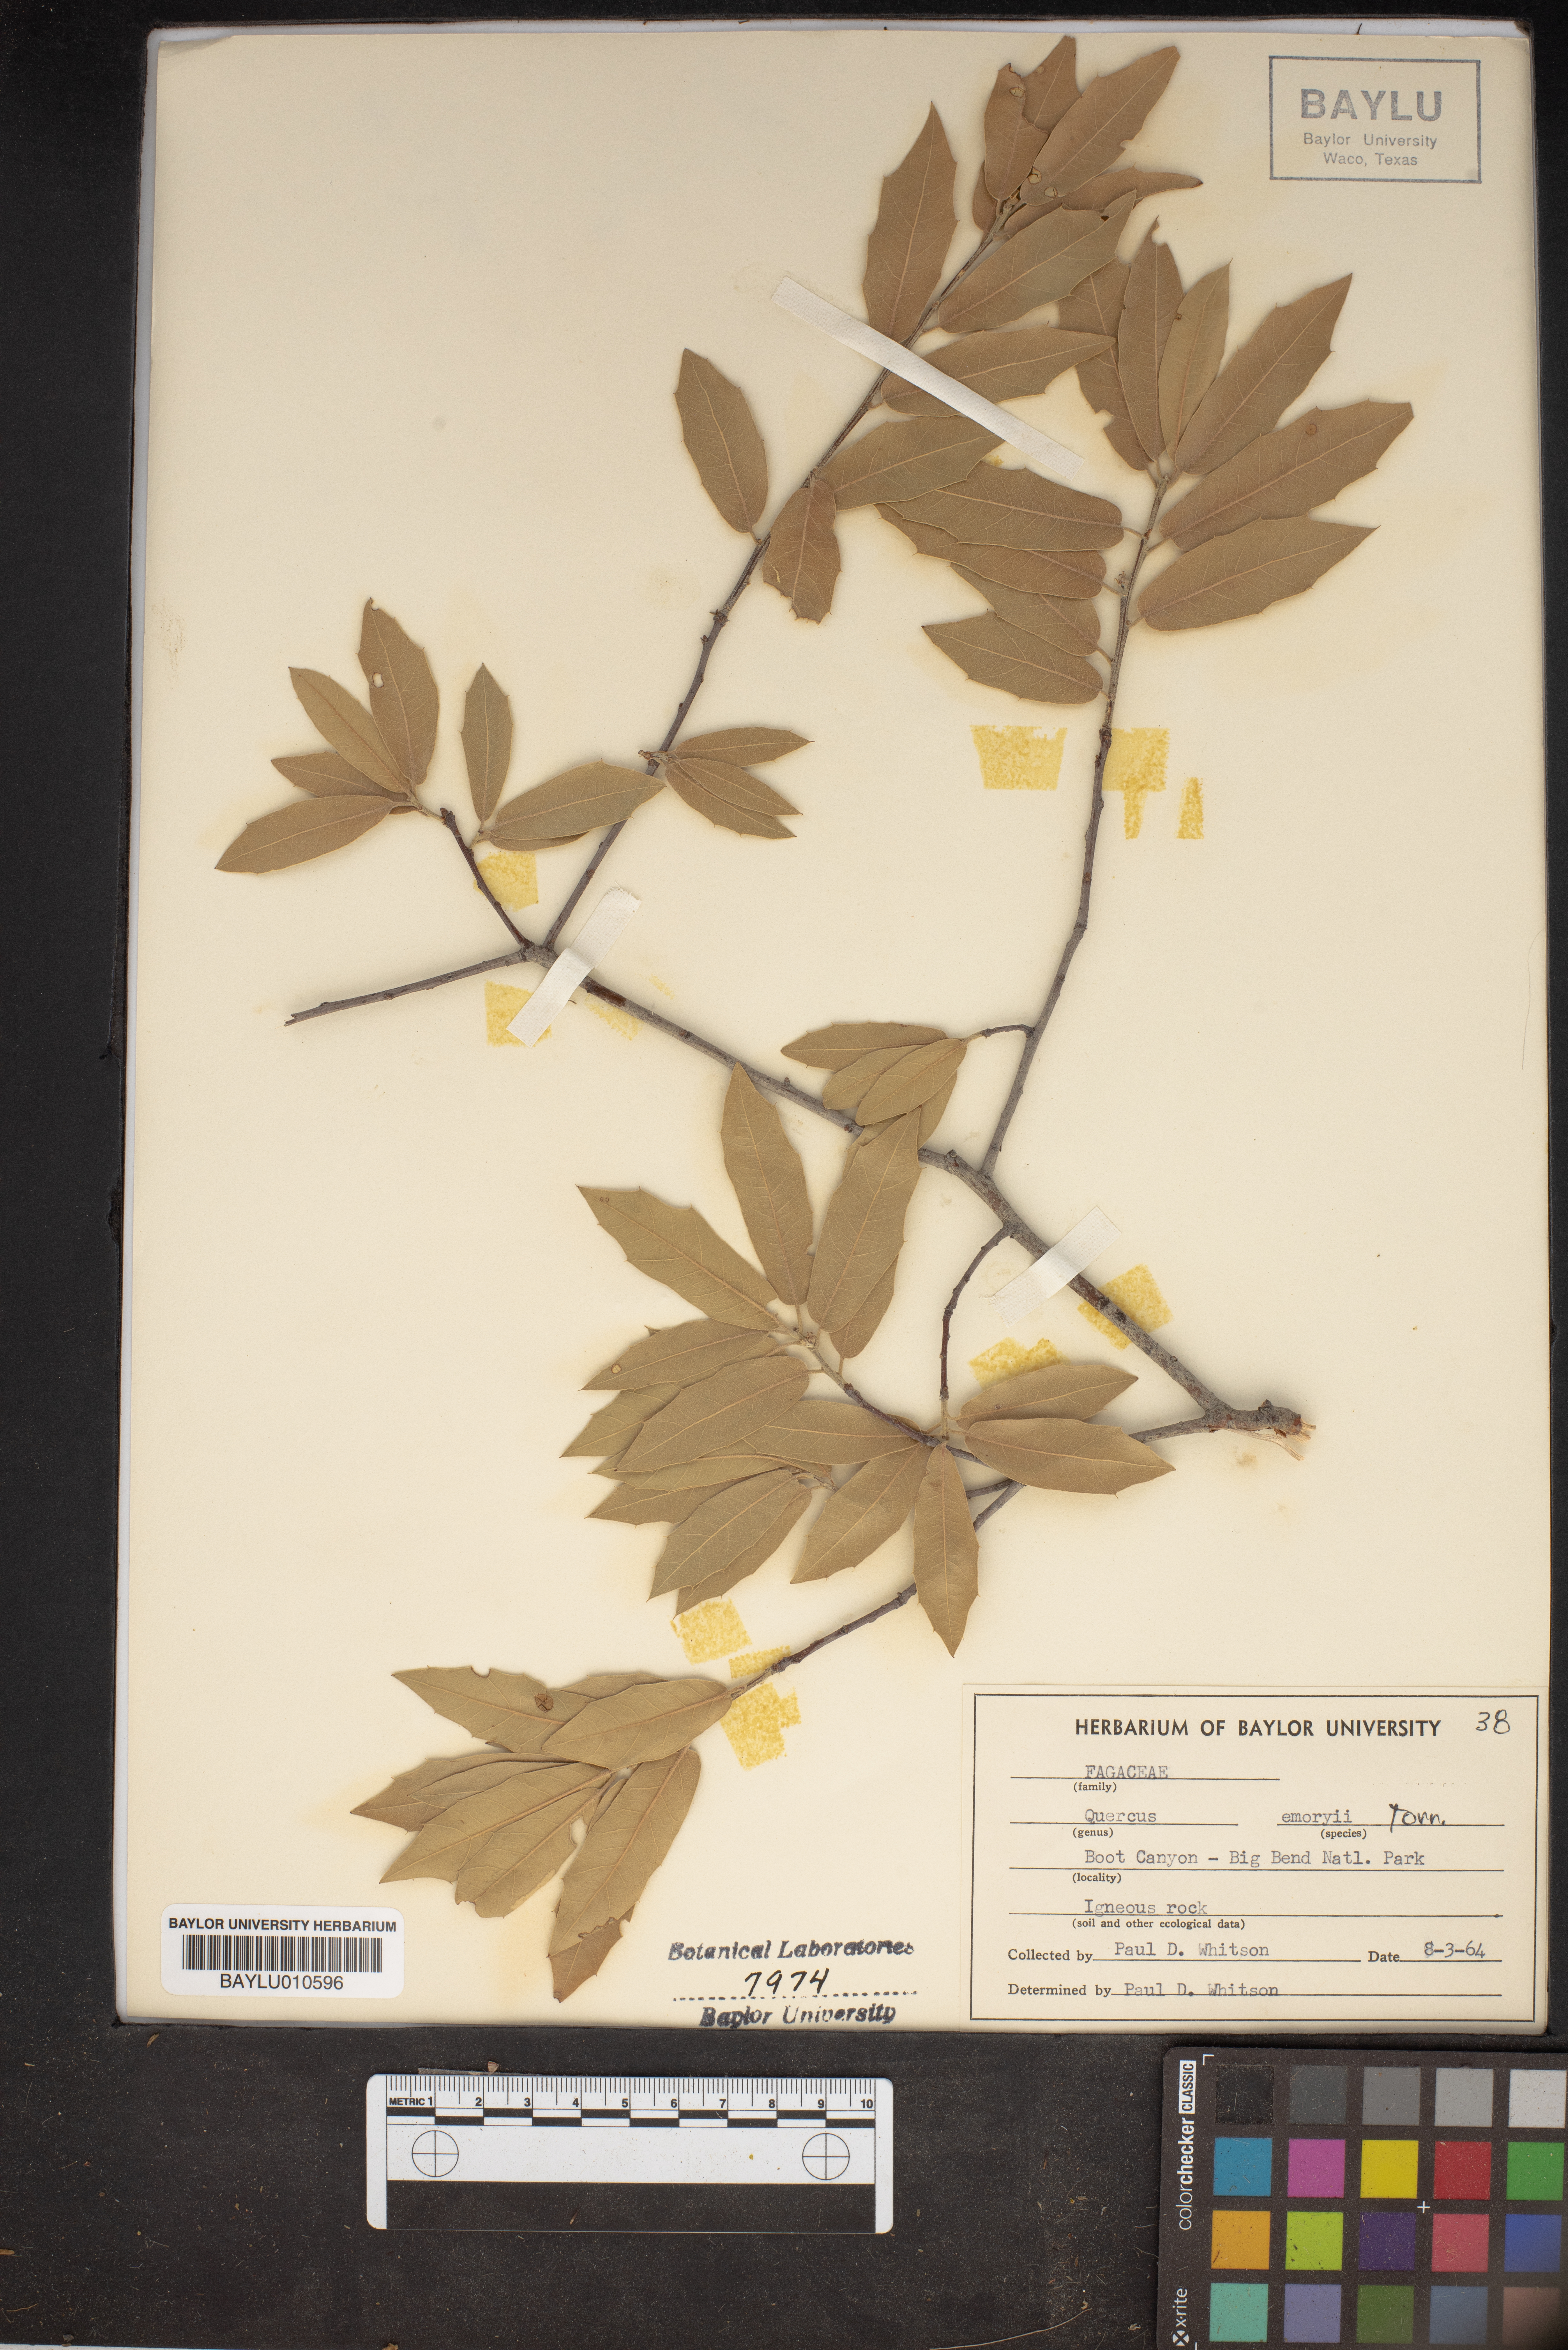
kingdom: Plantae
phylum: Tracheophyta
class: Magnoliopsida
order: Fagales
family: Fagaceae
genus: Quercus
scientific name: Quercus emoryi
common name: Emory oak
